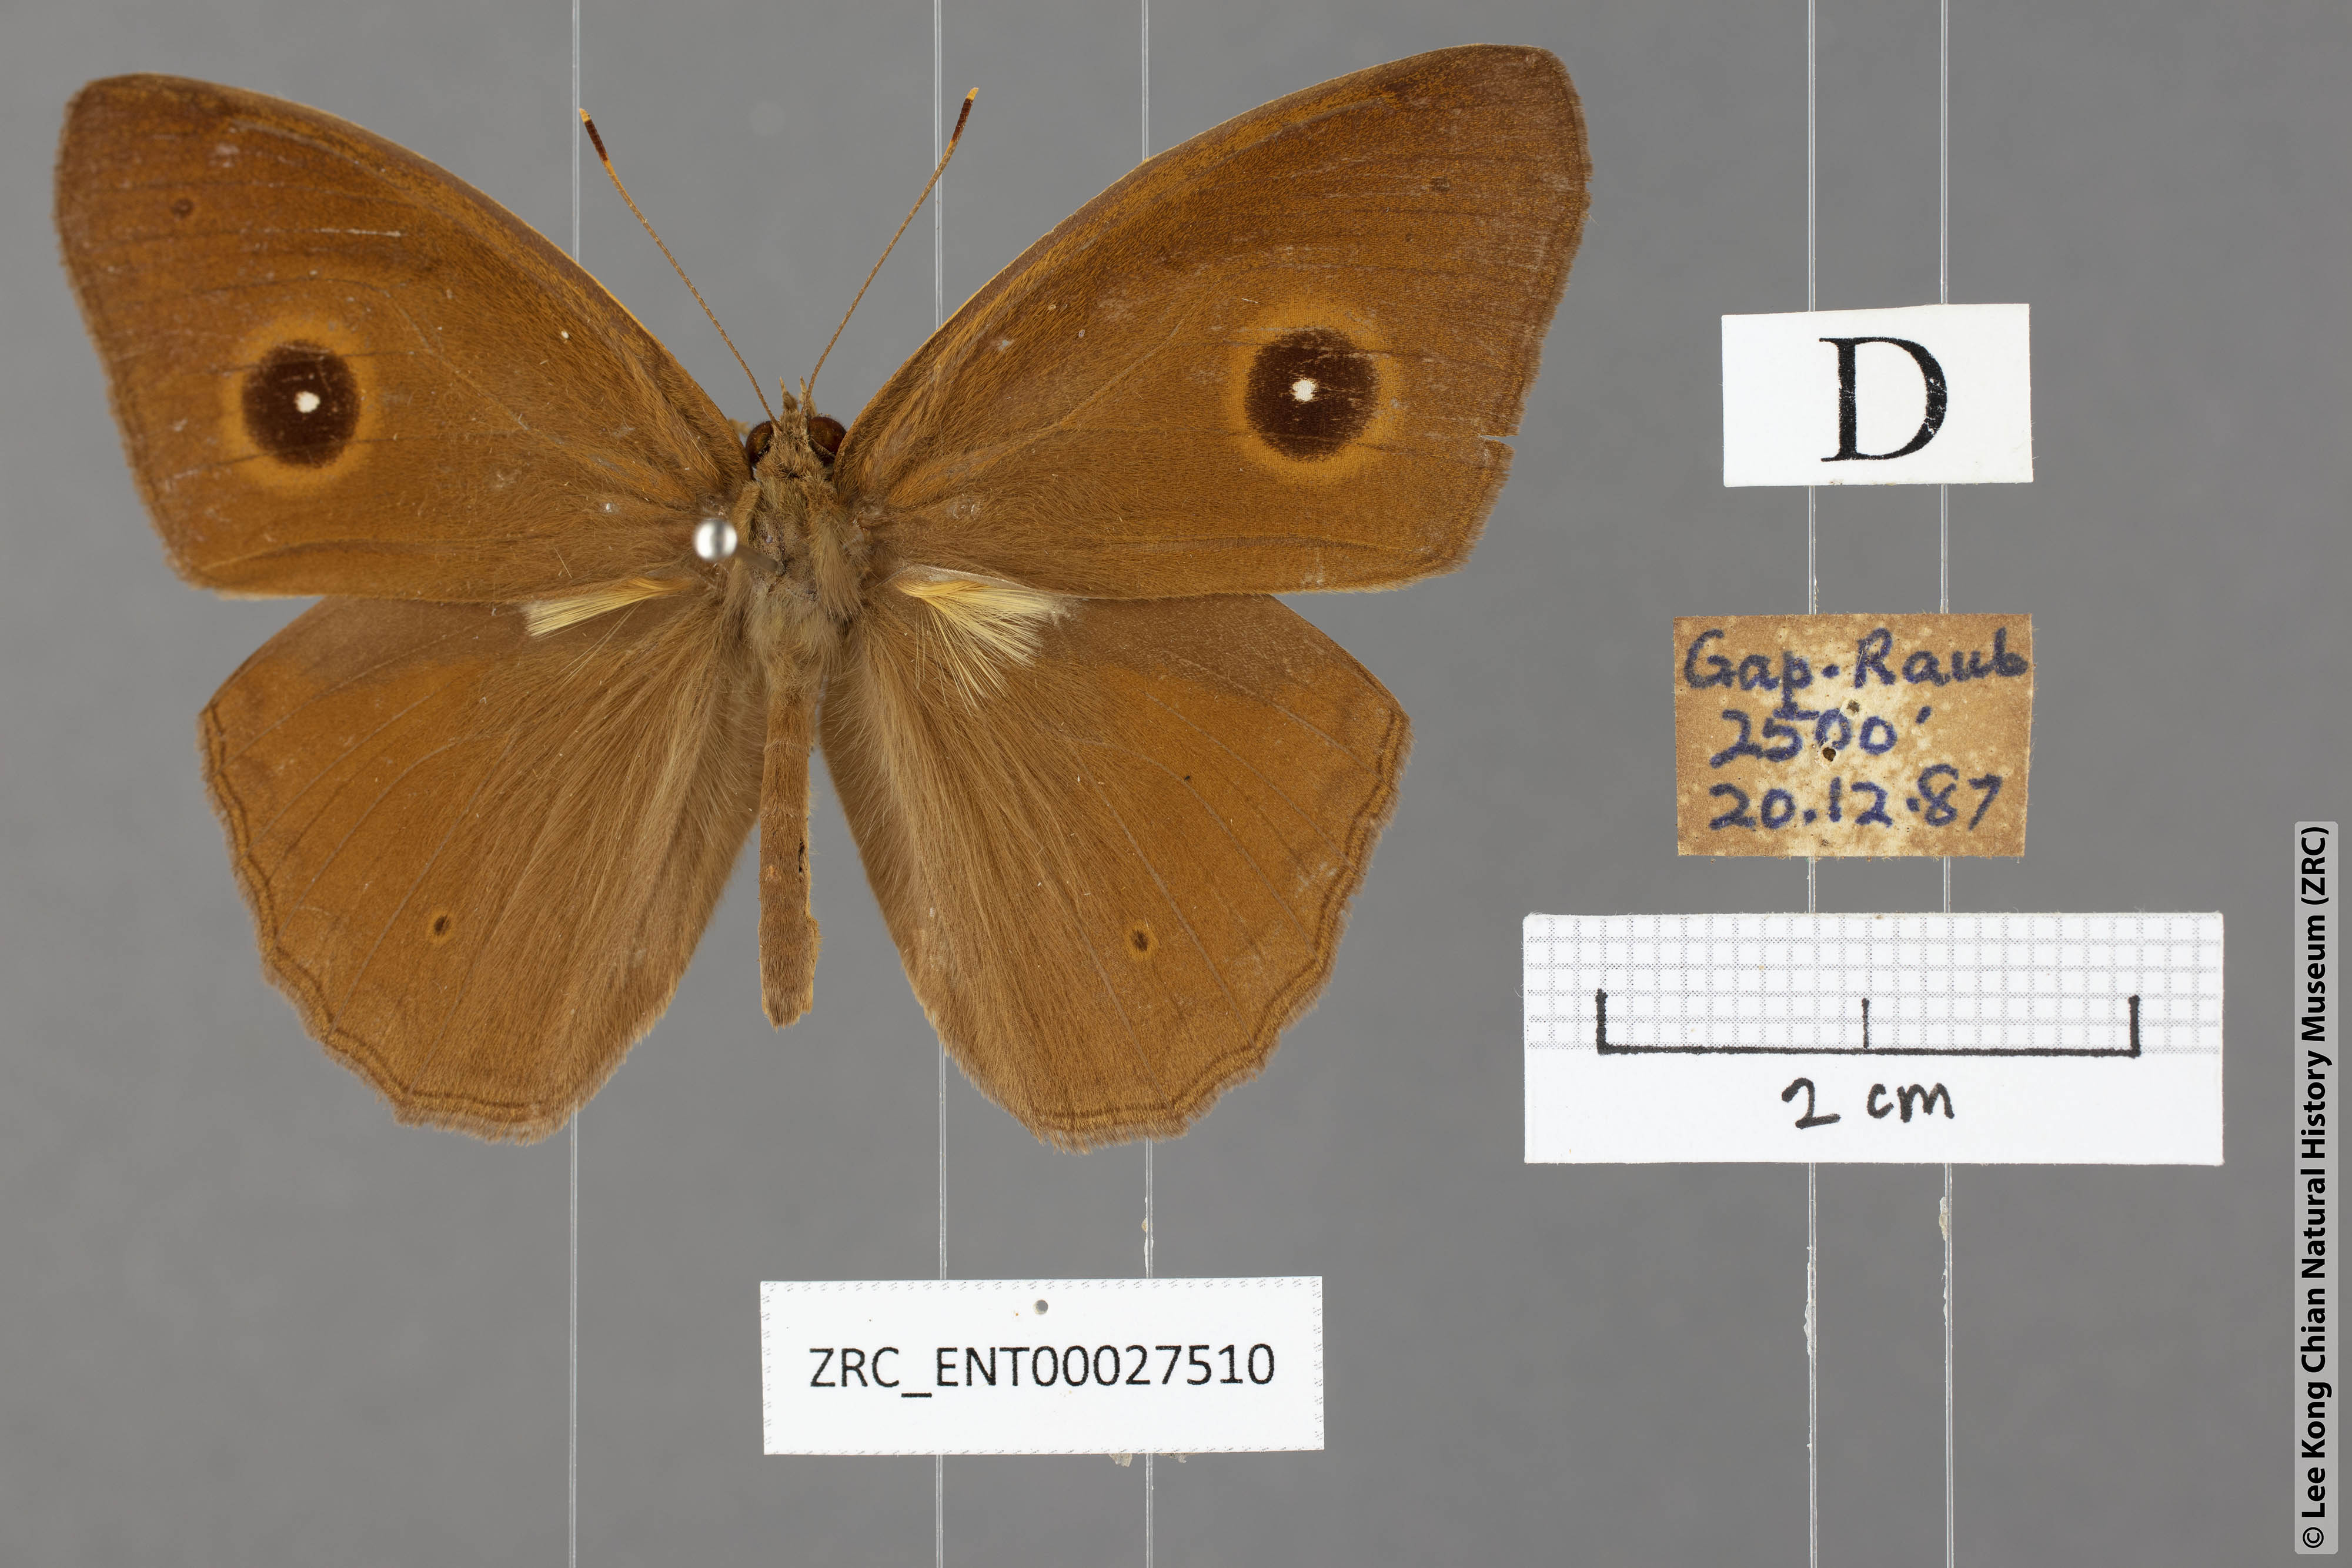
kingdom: Animalia
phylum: Arthropoda
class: Insecta
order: Lepidoptera
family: Nymphalidae
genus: Mycalesis
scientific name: Mycalesis mnasicles
